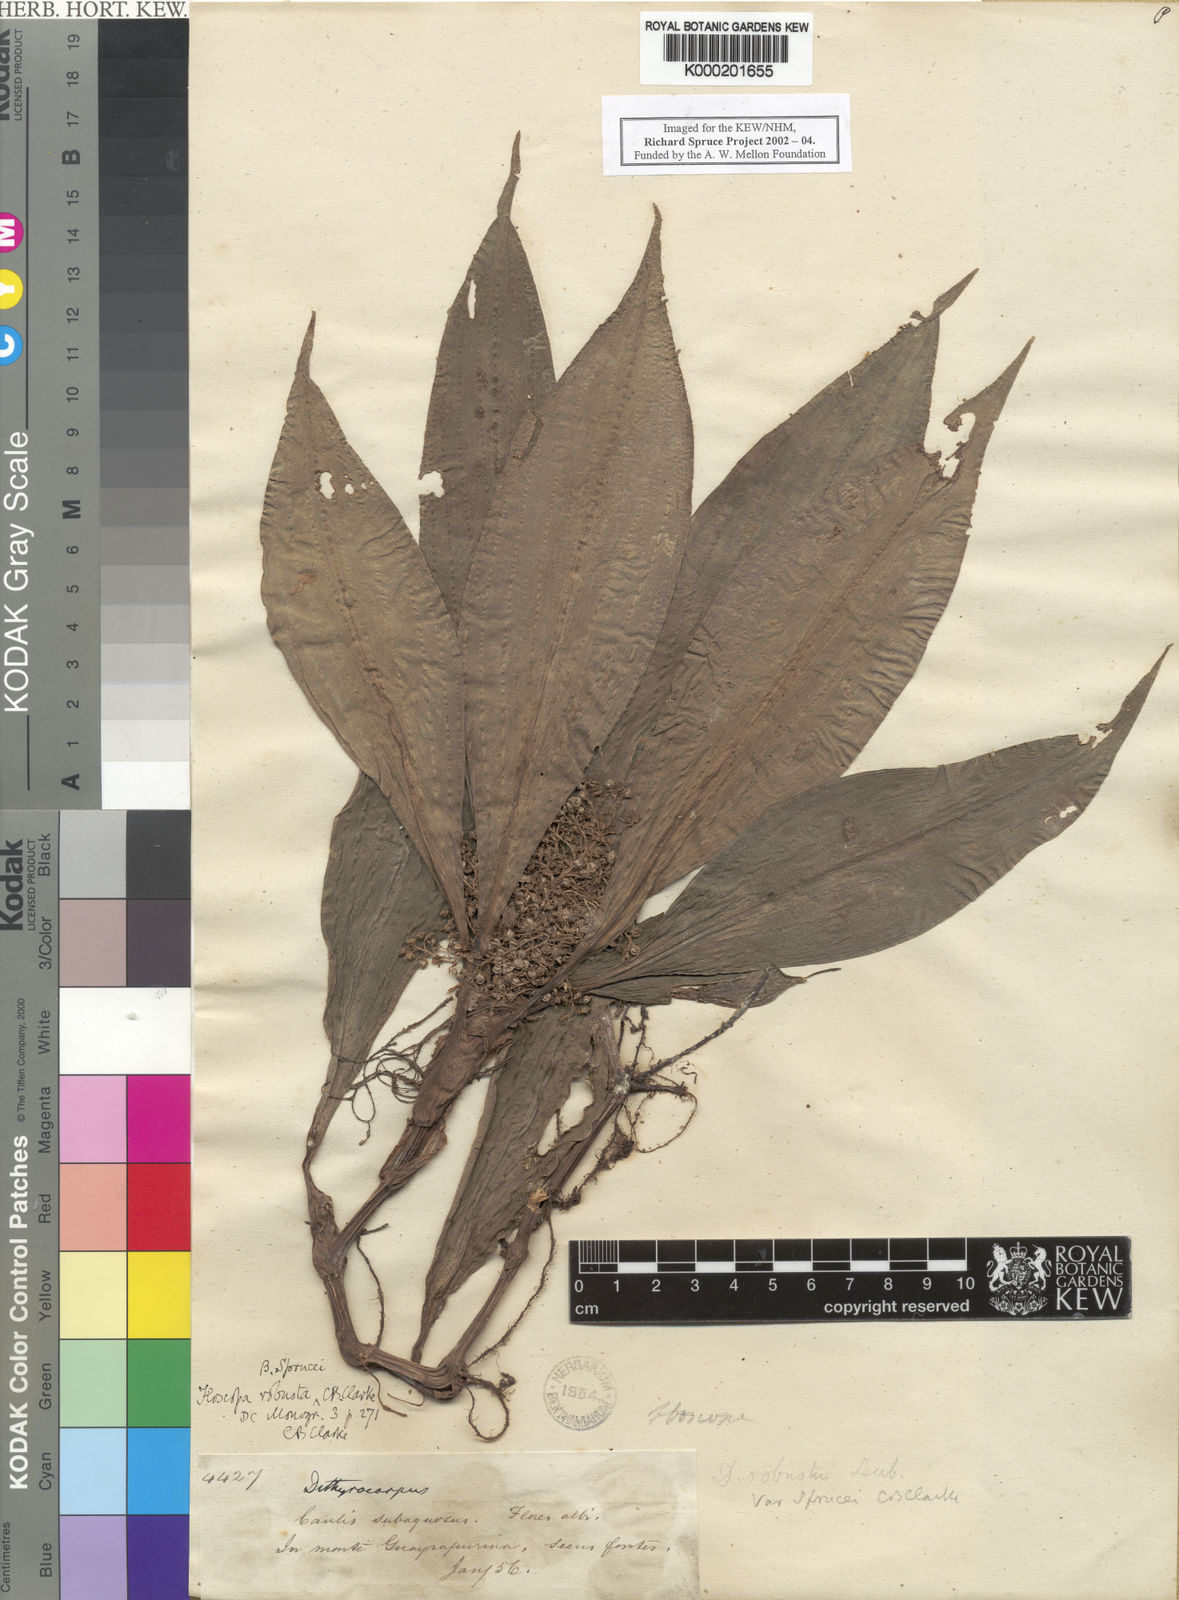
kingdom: Plantae
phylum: Tracheophyta
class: Liliopsida
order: Commelinales
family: Commelinaceae
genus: Floscopa
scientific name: Floscopa peruviana
